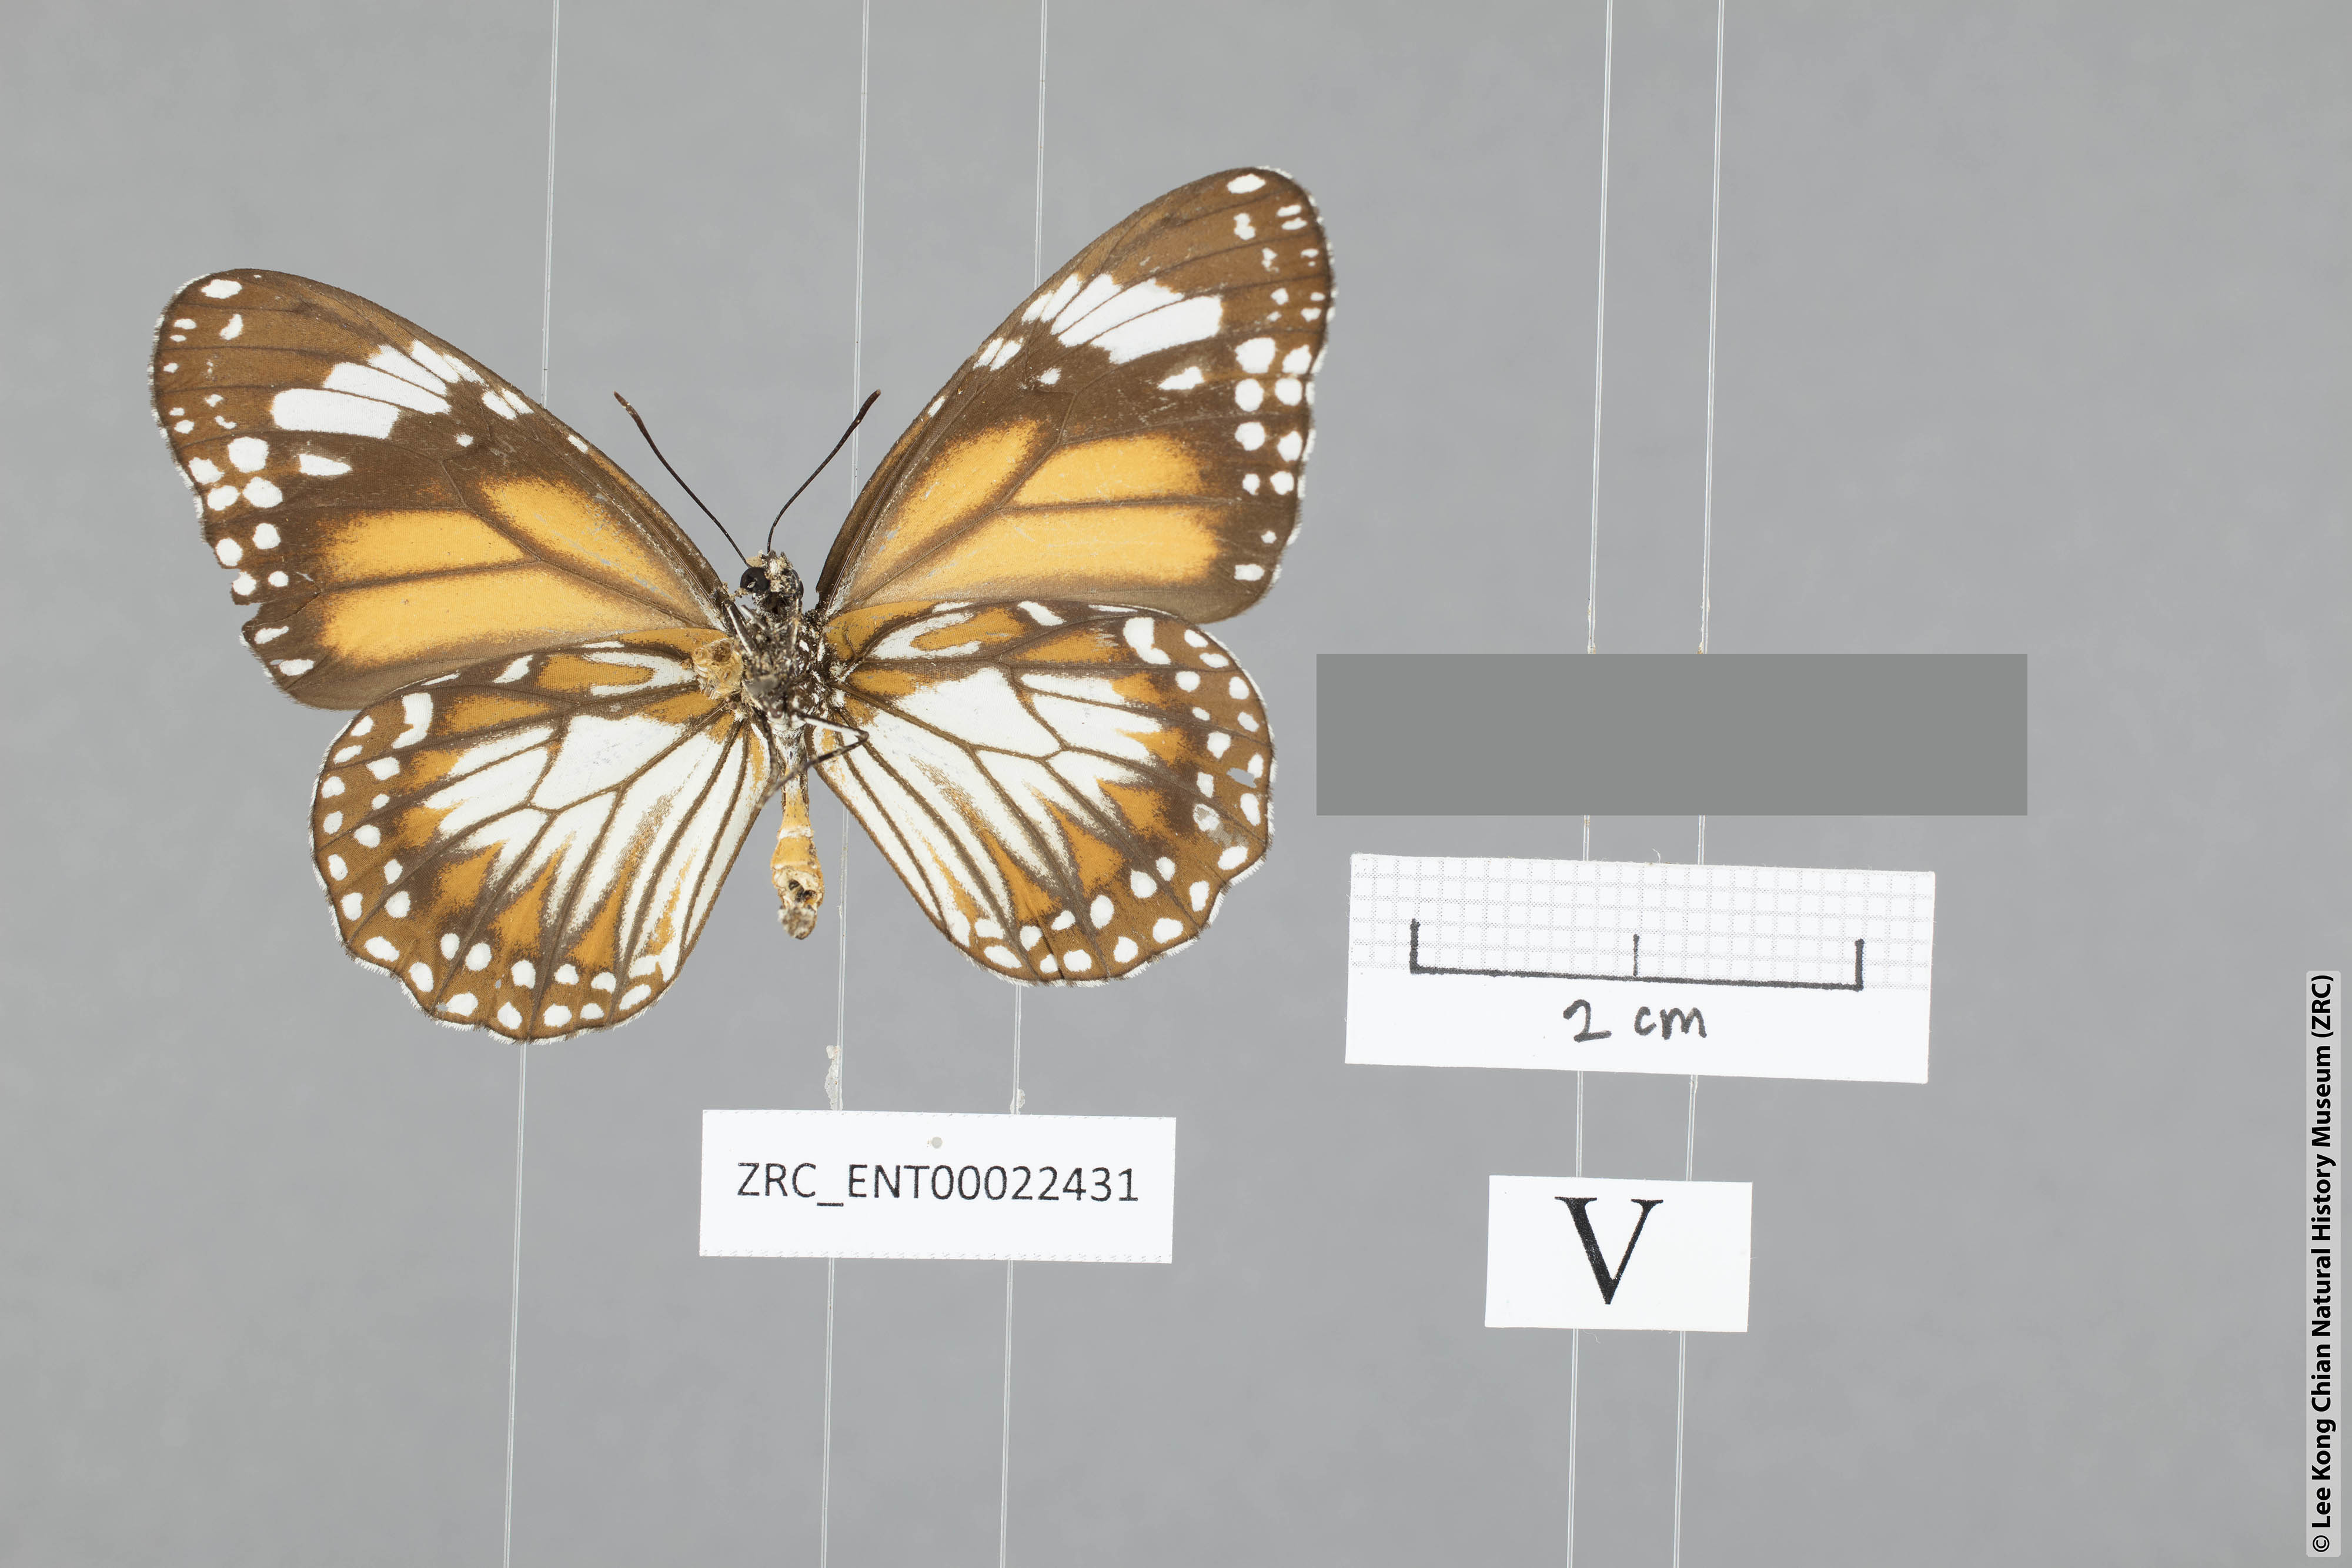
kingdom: Animalia
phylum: Arthropoda
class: Insecta
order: Lepidoptera
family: Nymphalidae
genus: Danaus
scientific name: Danaus affinis
